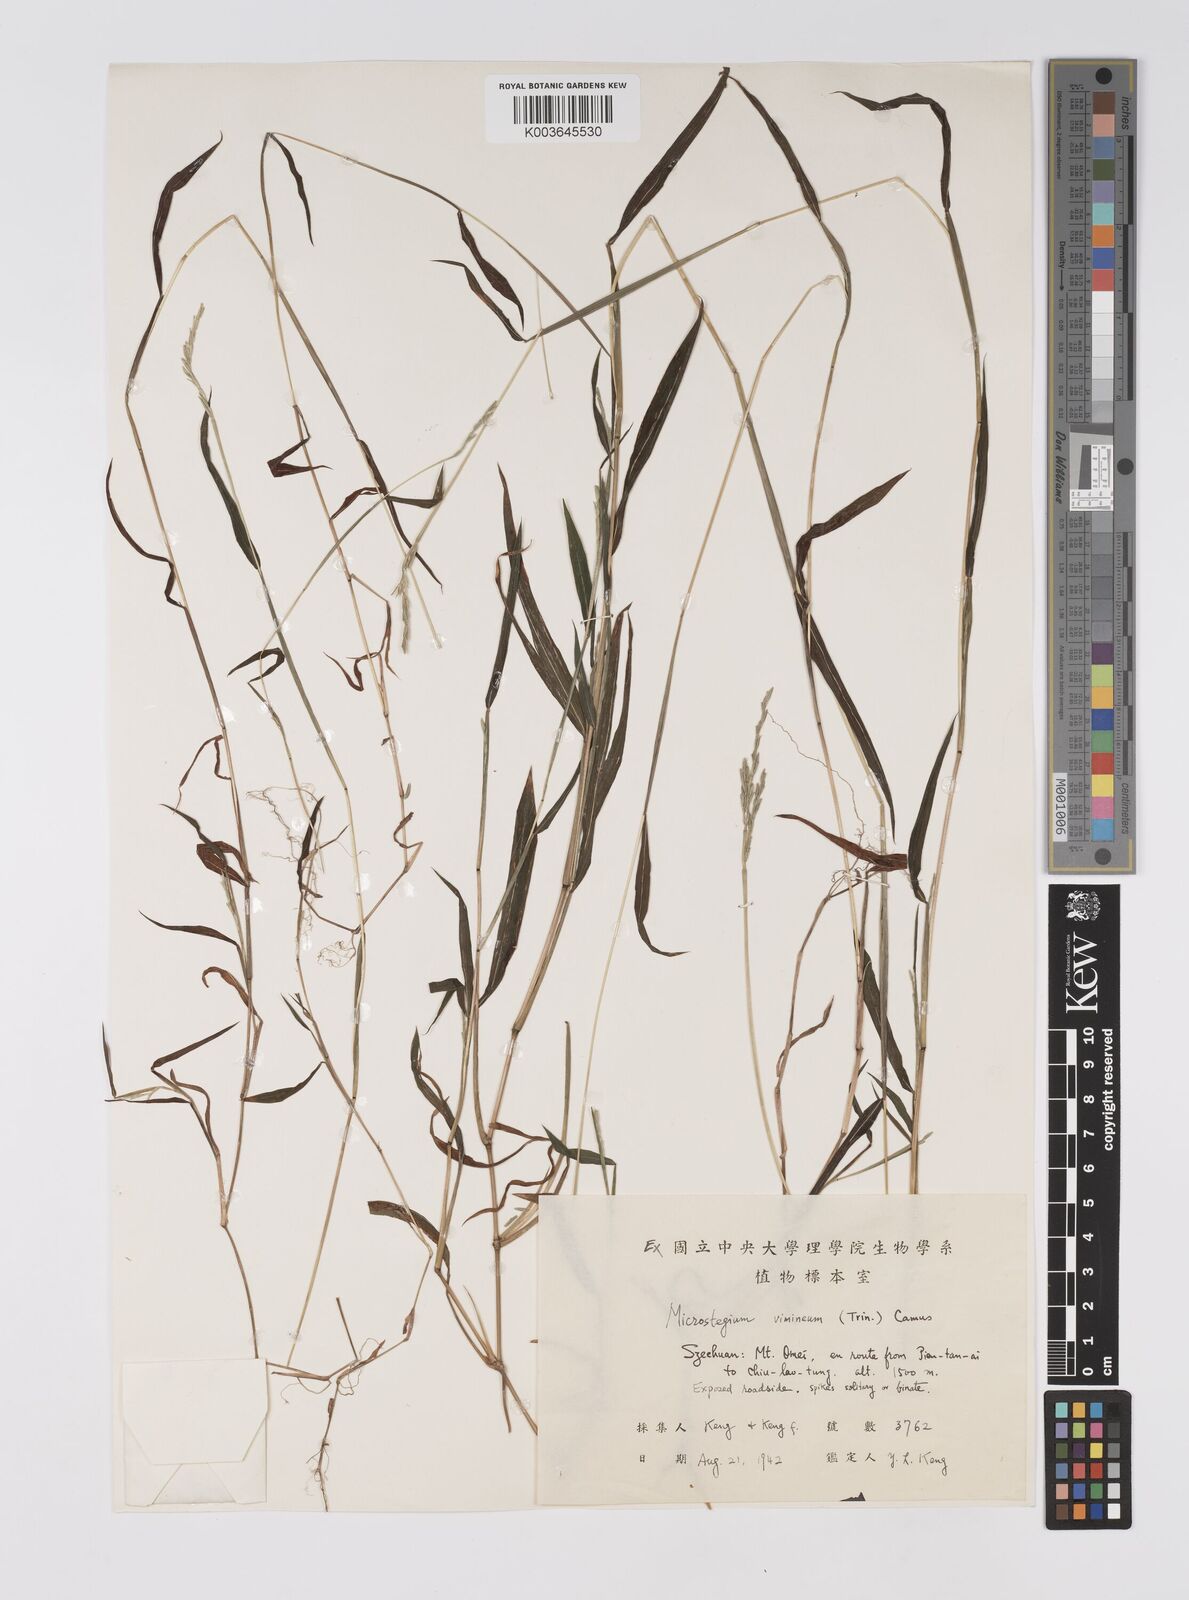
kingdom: Plantae
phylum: Tracheophyta
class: Liliopsida
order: Poales
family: Poaceae
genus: Microstegium
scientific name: Microstegium vimineum
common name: Japanese stiltgrass
